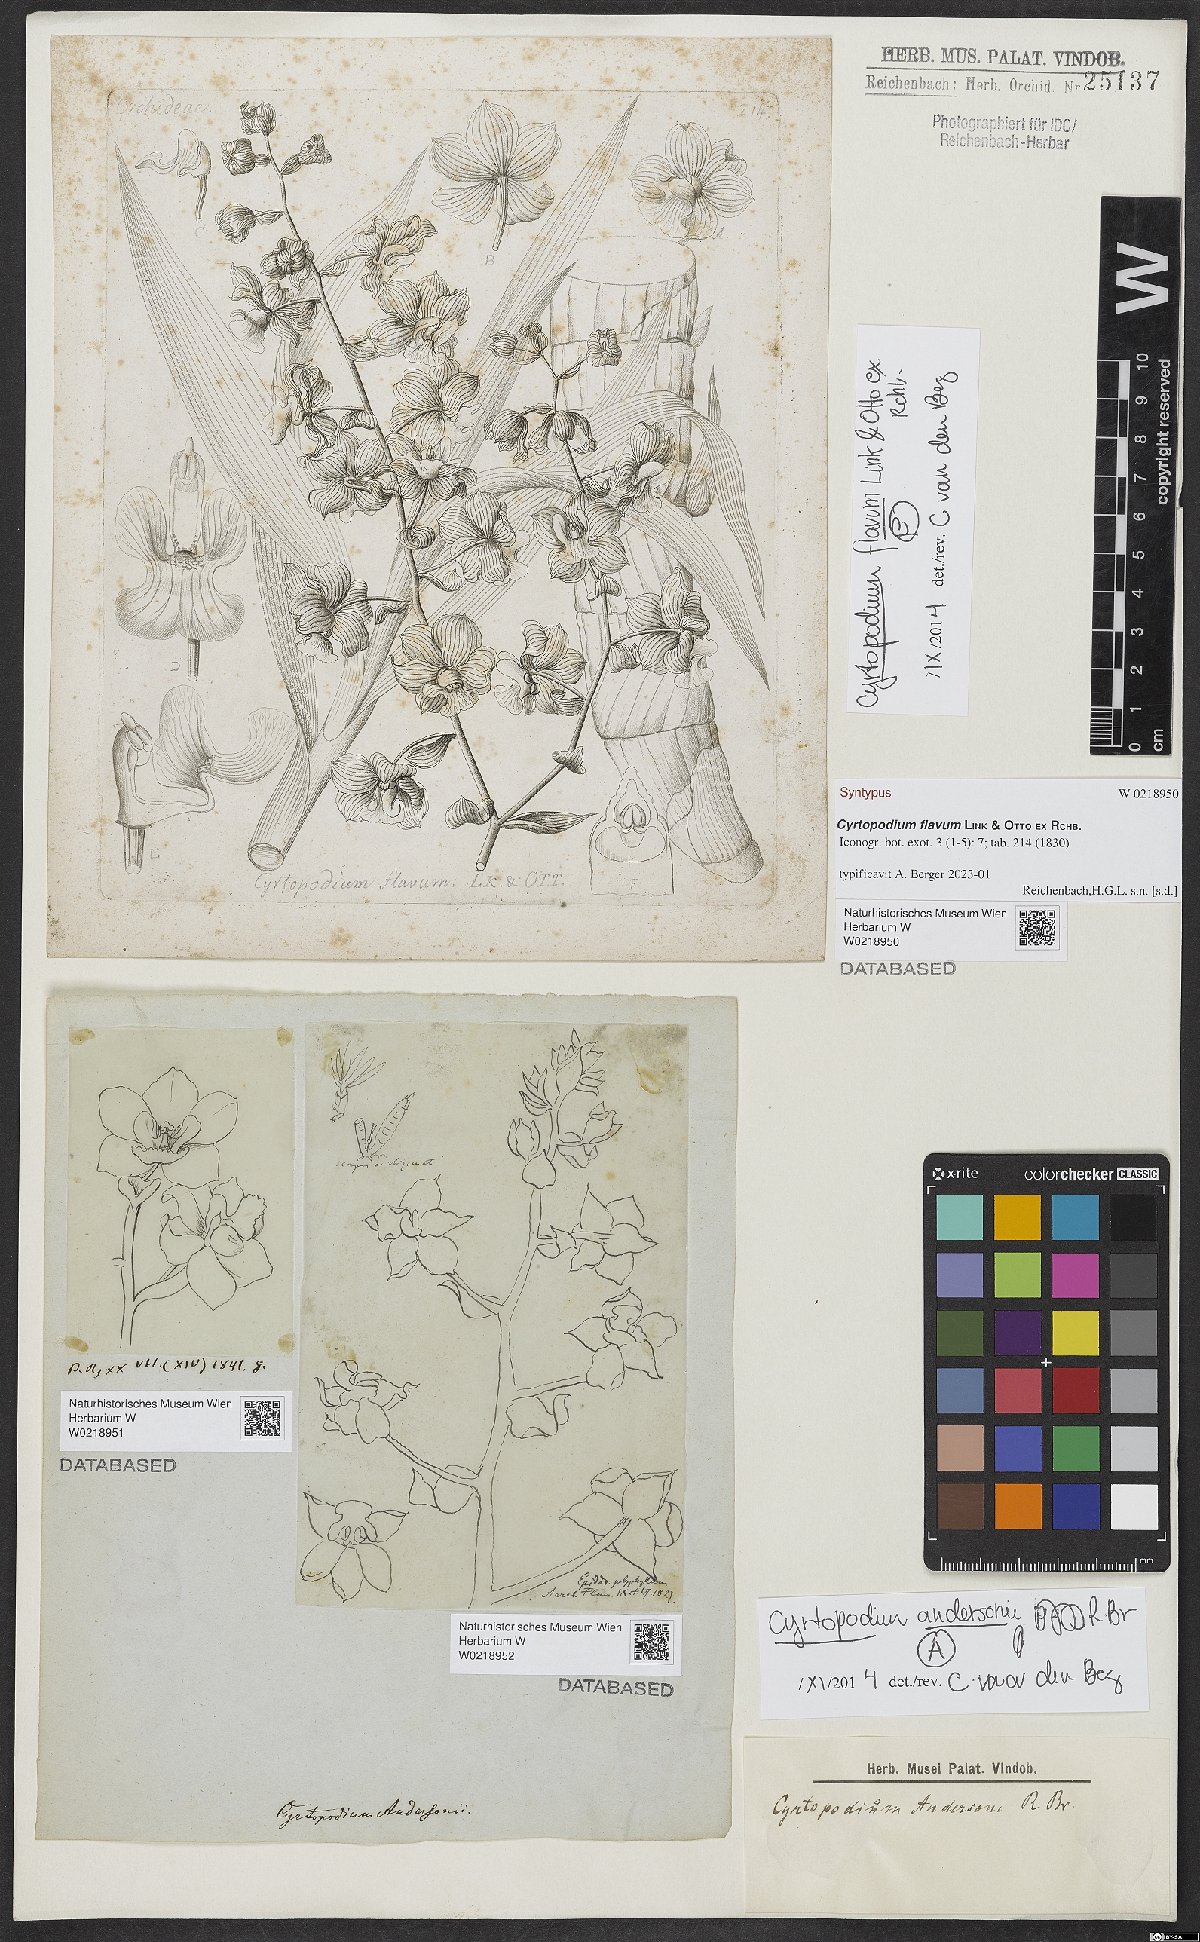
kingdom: Plantae
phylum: Tracheophyta
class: Liliopsida
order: Asparagales
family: Orchidaceae
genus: Cyrtopodium
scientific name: Cyrtopodium andersonii
